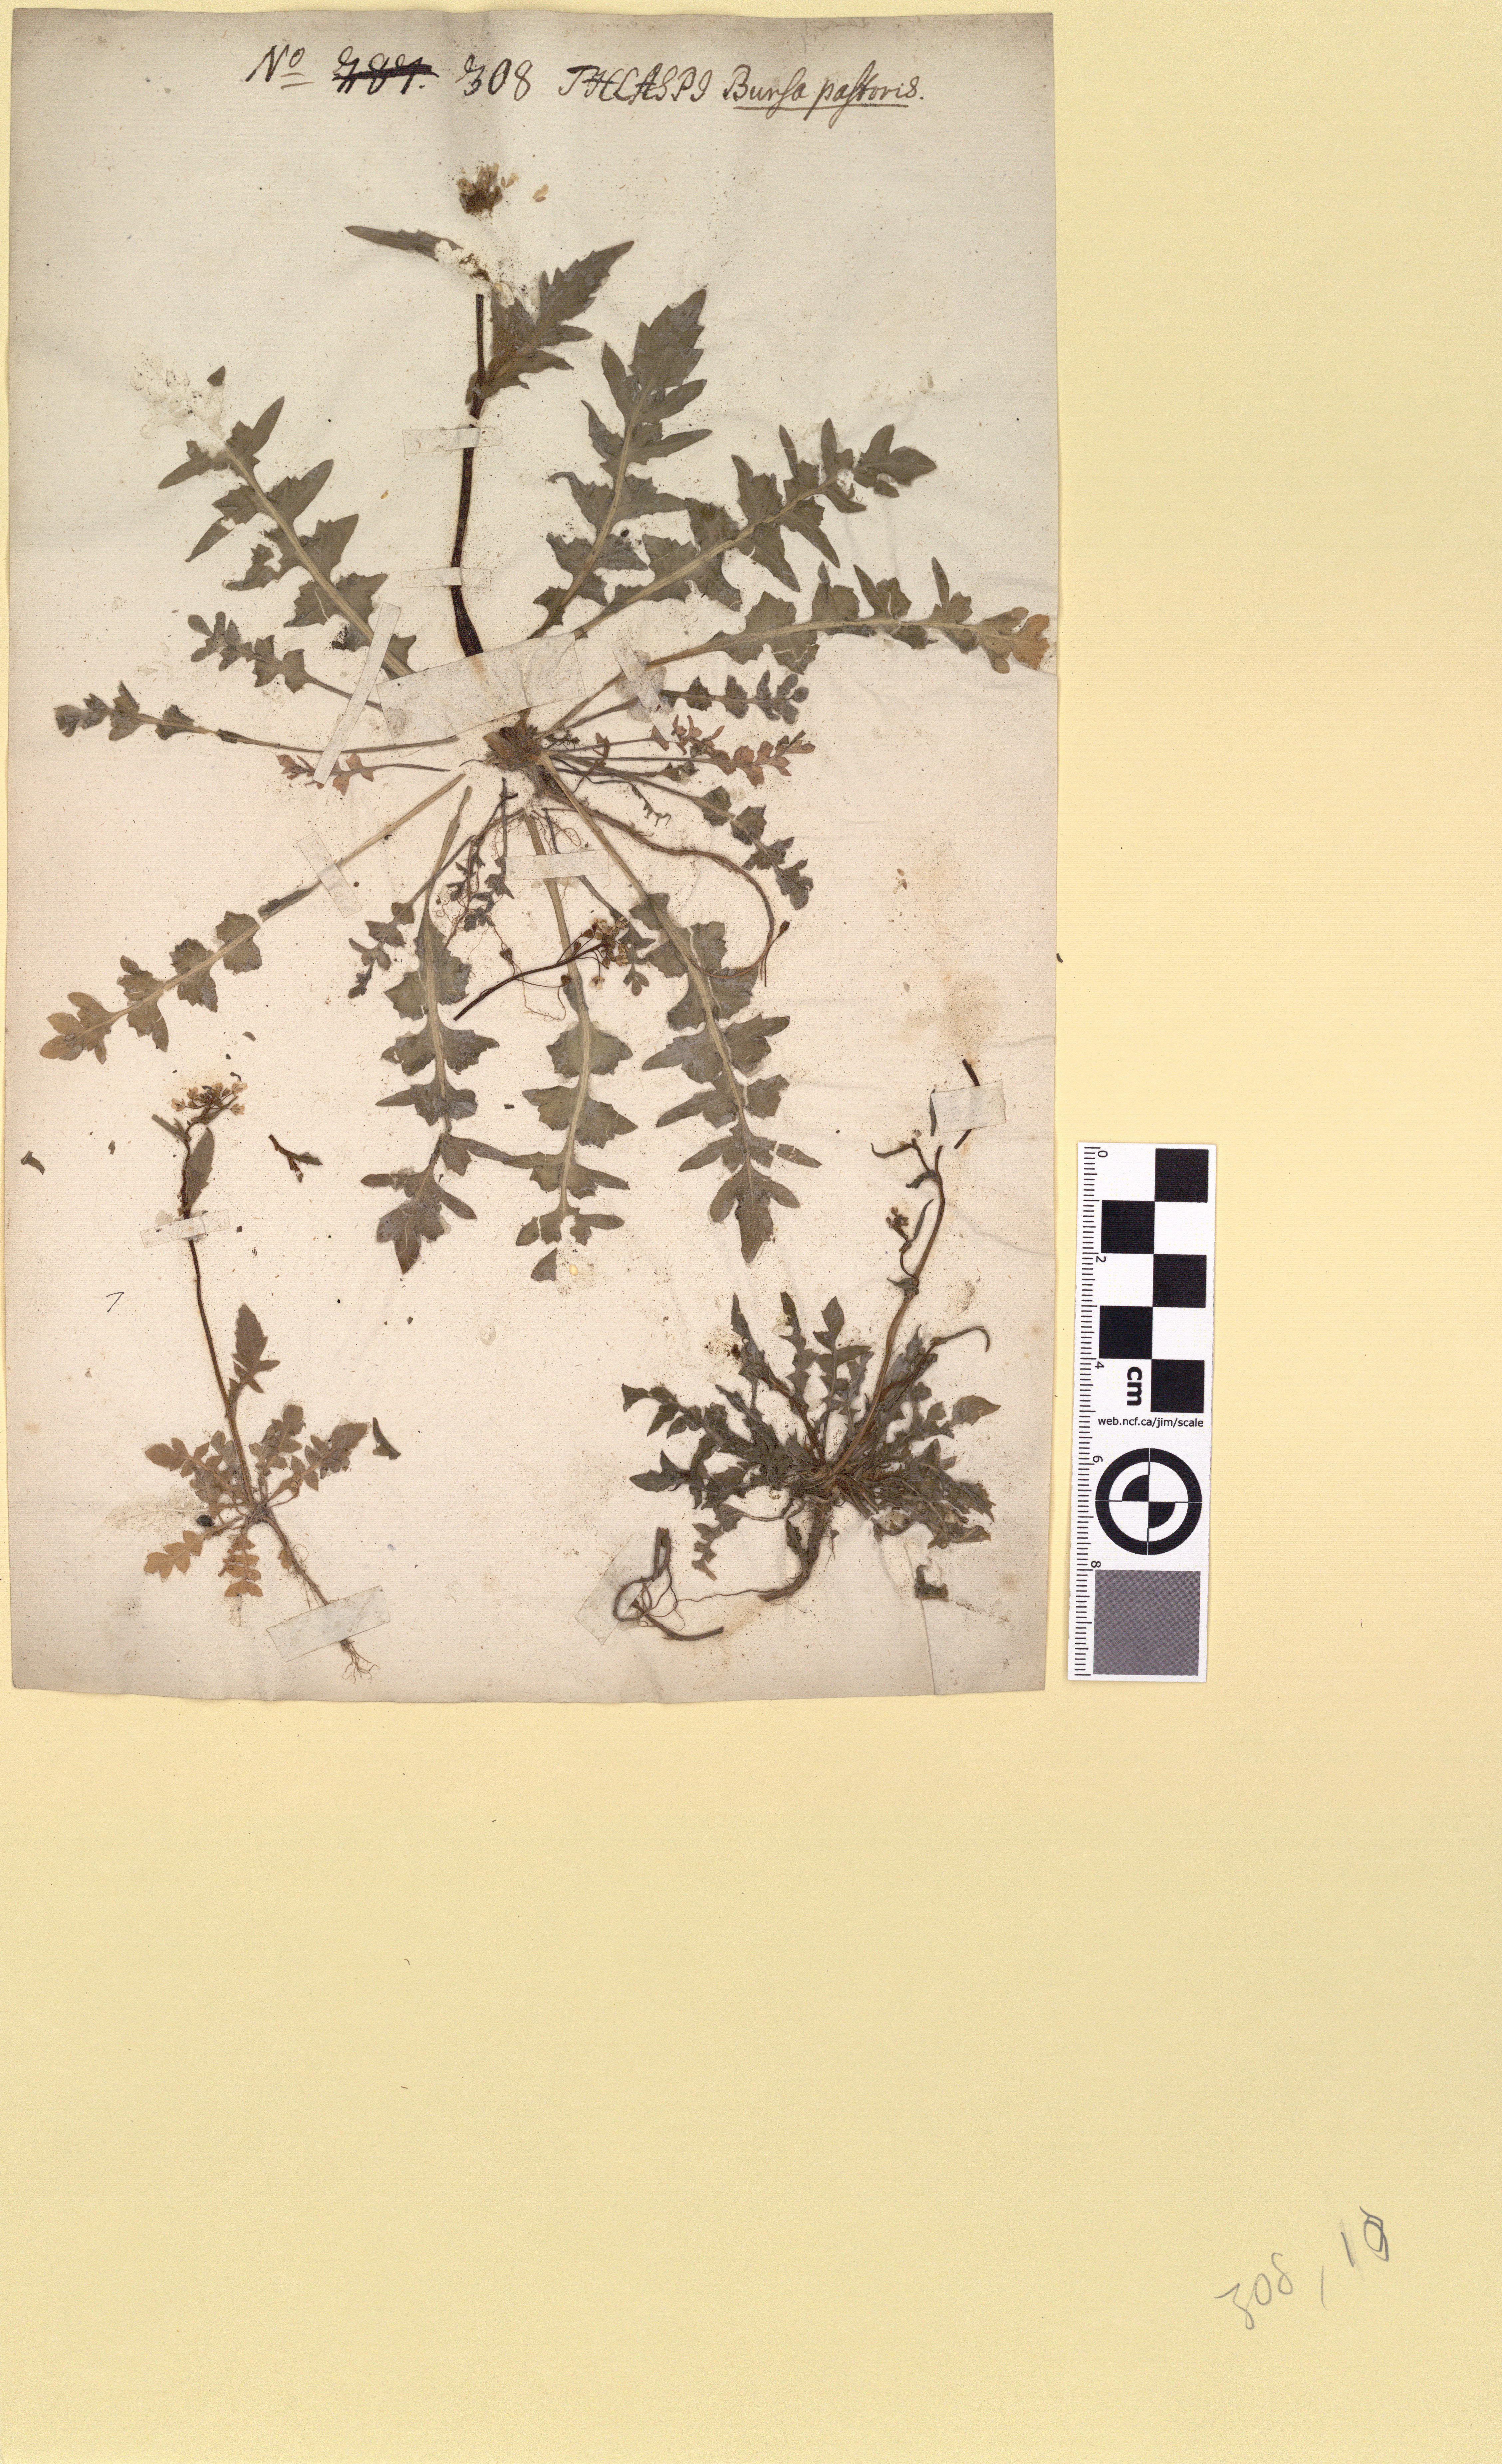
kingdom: Plantae
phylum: Tracheophyta
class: Magnoliopsida
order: Brassicales
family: Brassicaceae
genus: Capsella
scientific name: Capsella bursa-pastoris
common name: Shepherd's purse
